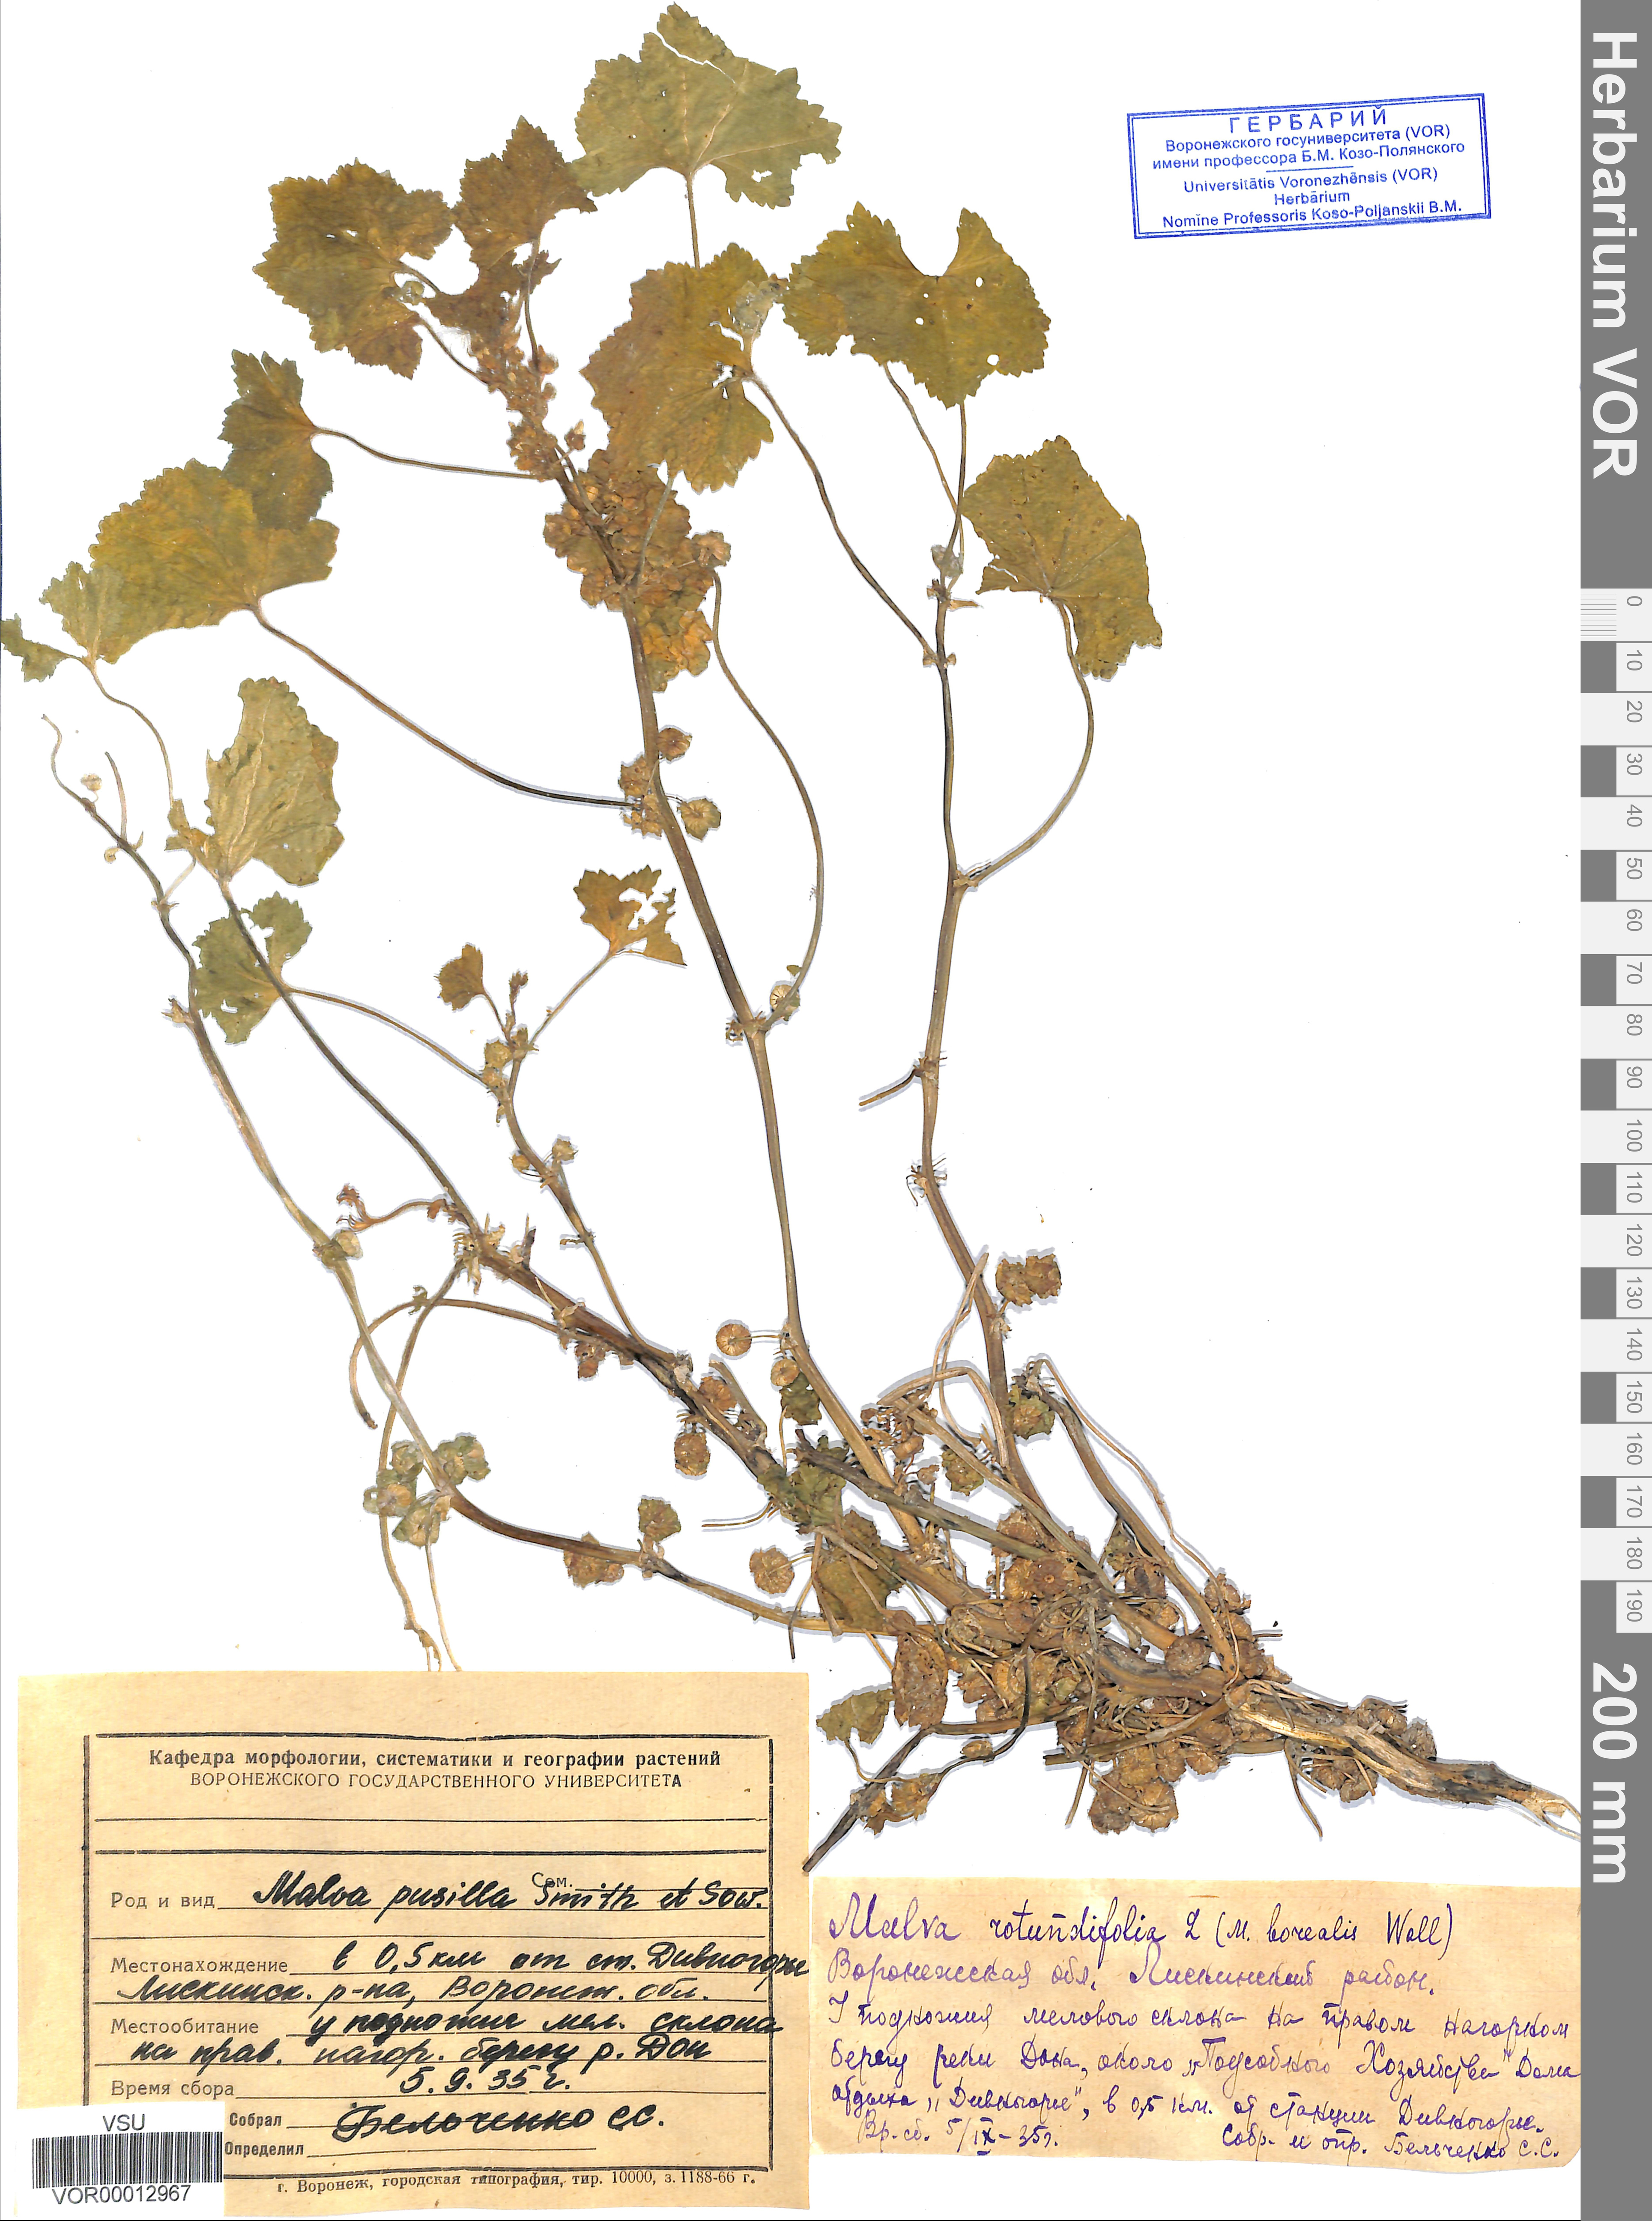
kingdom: Plantae
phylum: Tracheophyta
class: Magnoliopsida
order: Malvales
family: Malvaceae
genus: Malva
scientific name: Malva pusilla
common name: Small mallow
